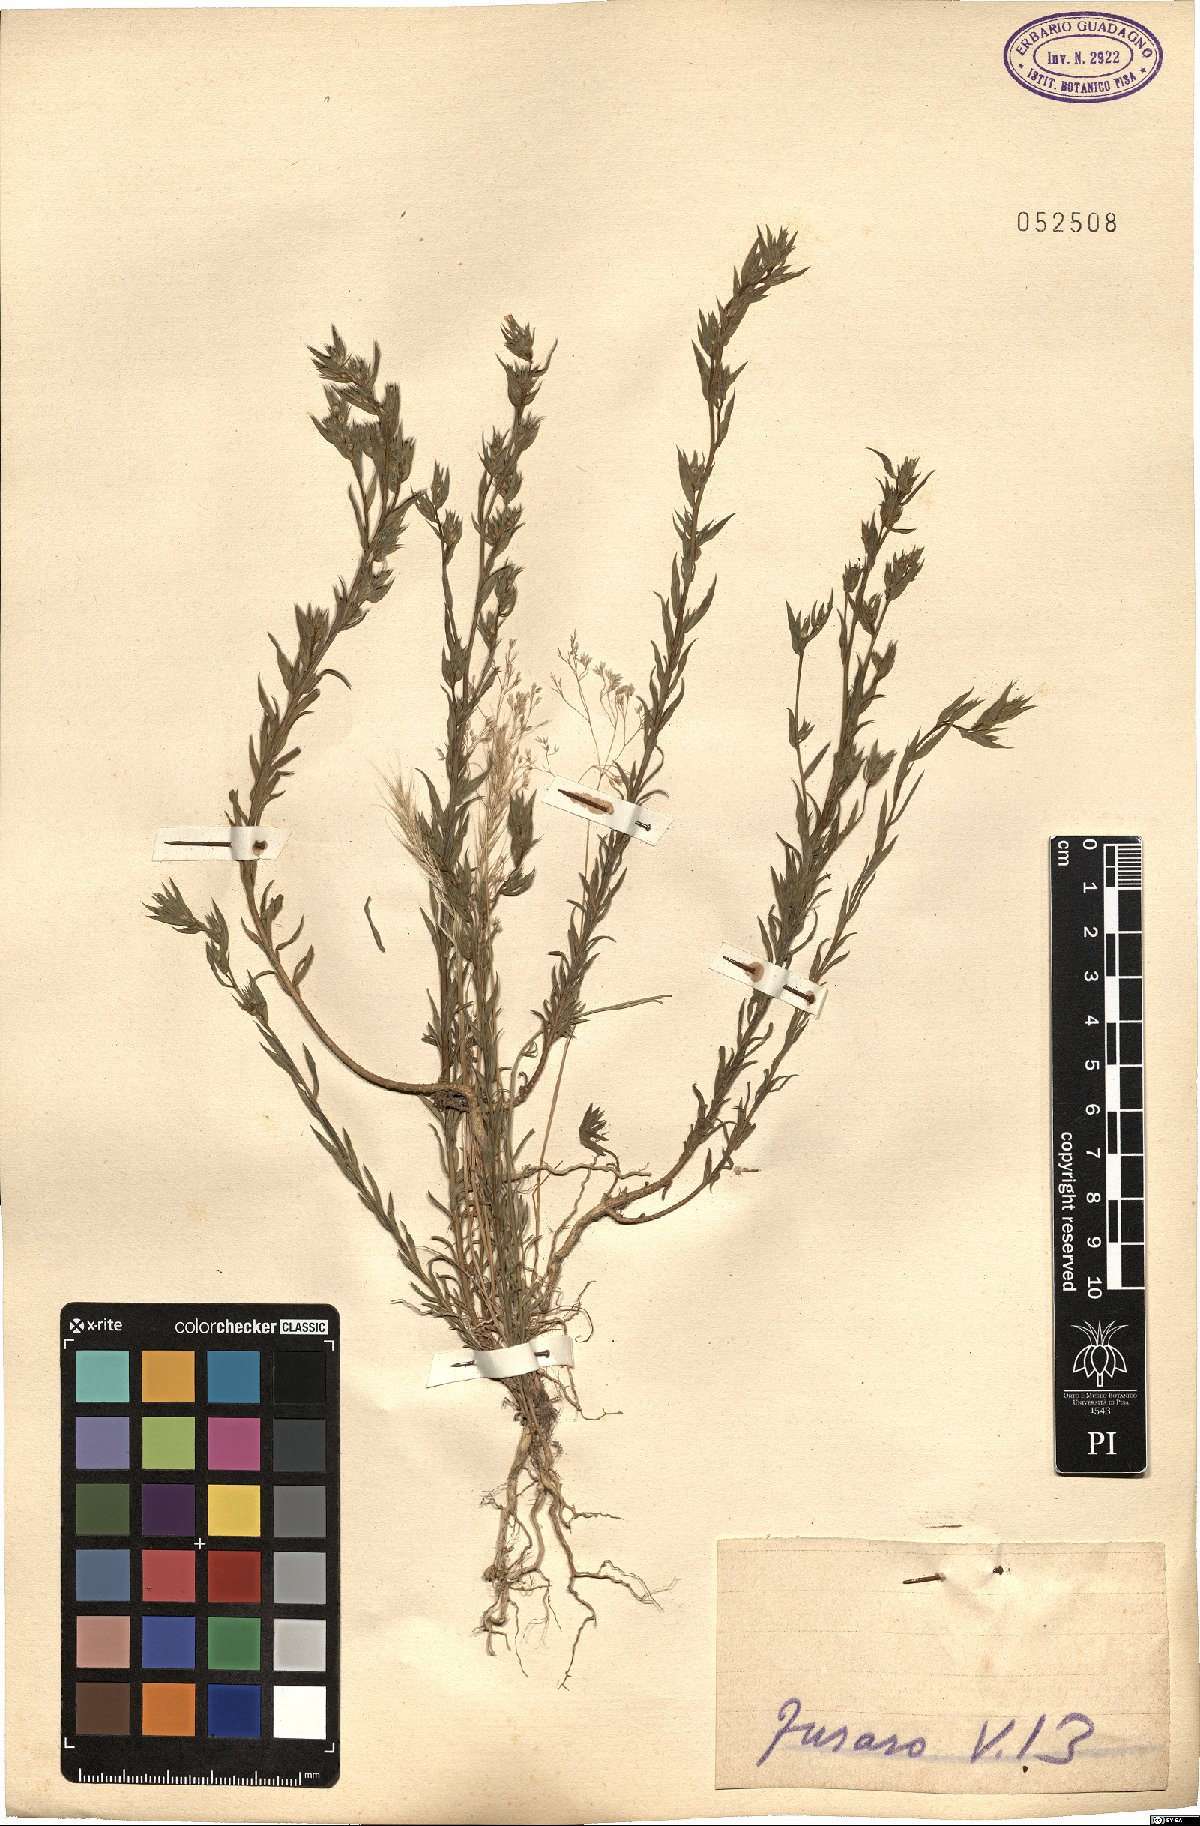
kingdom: Plantae
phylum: Tracheophyta
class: Magnoliopsida
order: Malpighiales
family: Linaceae
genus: Linum
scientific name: Linum
